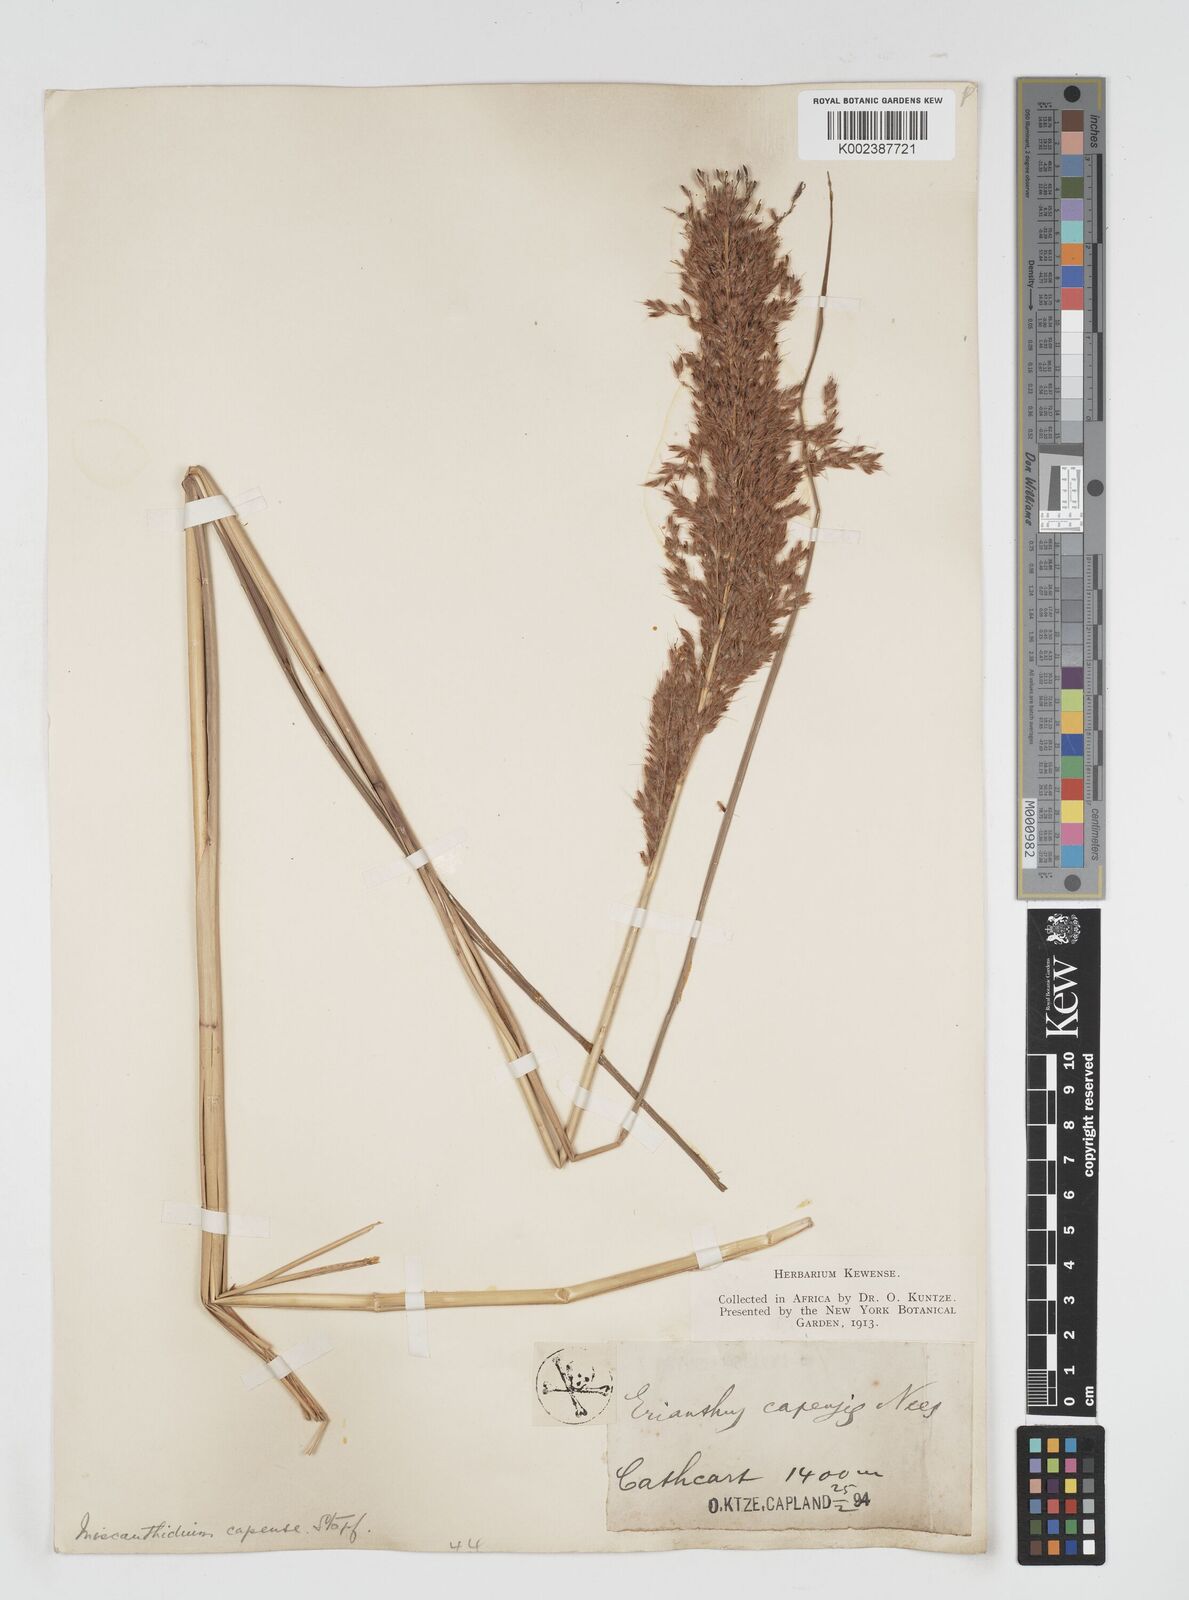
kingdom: Plantae
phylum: Tracheophyta
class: Liliopsida
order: Poales
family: Poaceae
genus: Miscanthus
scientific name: Miscanthus ecklonii
